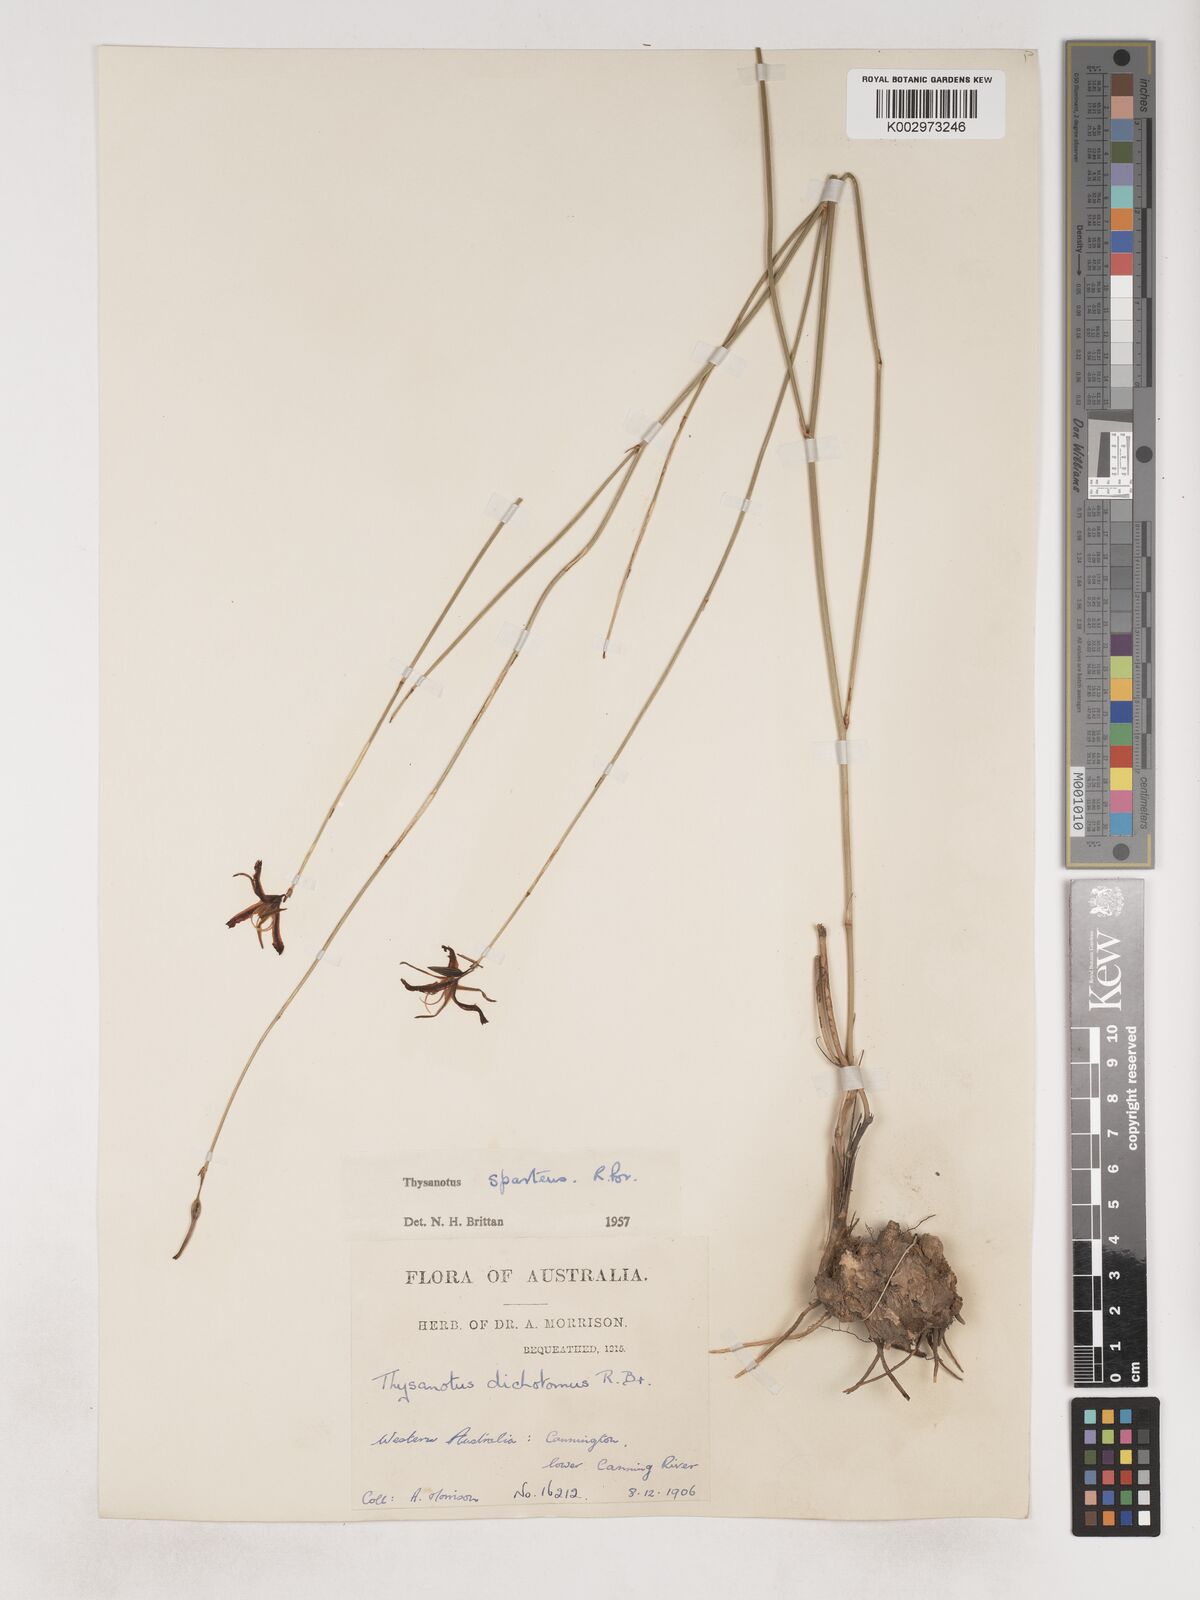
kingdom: Plantae
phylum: Tracheophyta
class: Liliopsida
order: Asparagales
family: Asparagaceae
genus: Thysanotus
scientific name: Thysanotus sparteus
